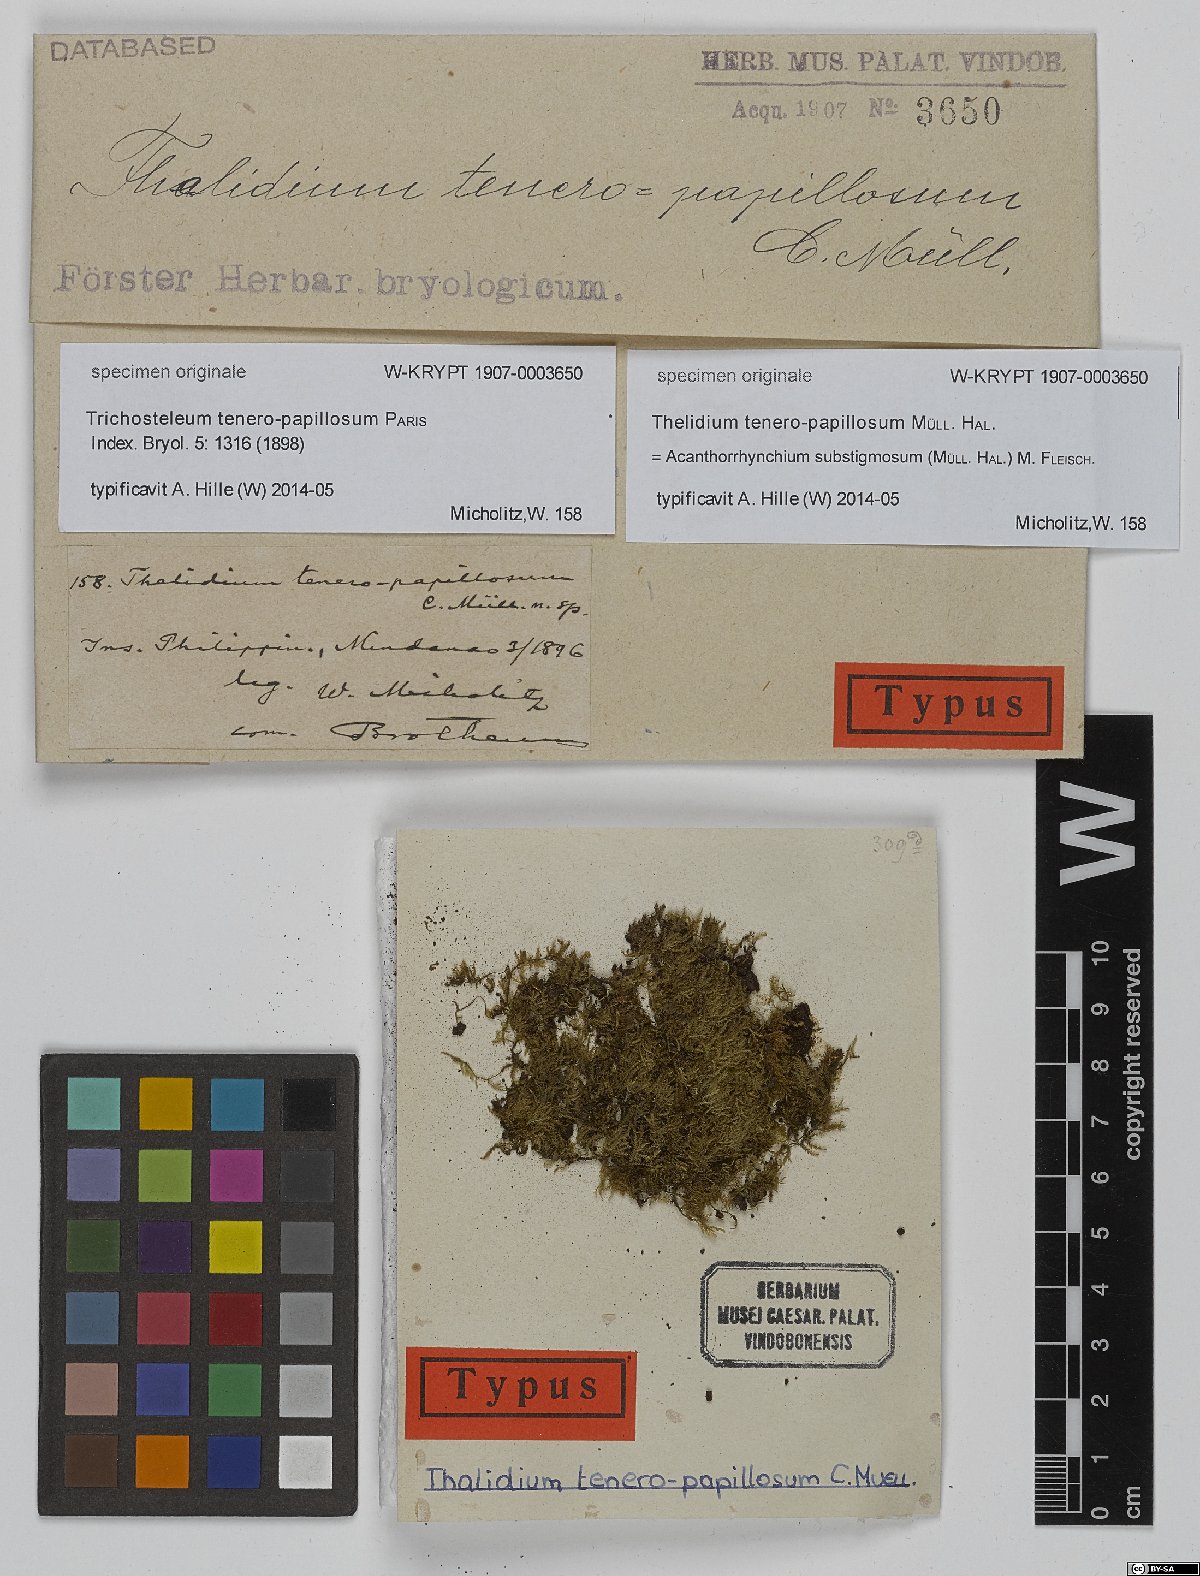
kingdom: Fungi
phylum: Ascomycota
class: Eurotiomycetes
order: Verrucariales
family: Verrucariaceae
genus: Thelidium
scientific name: Thelidium
